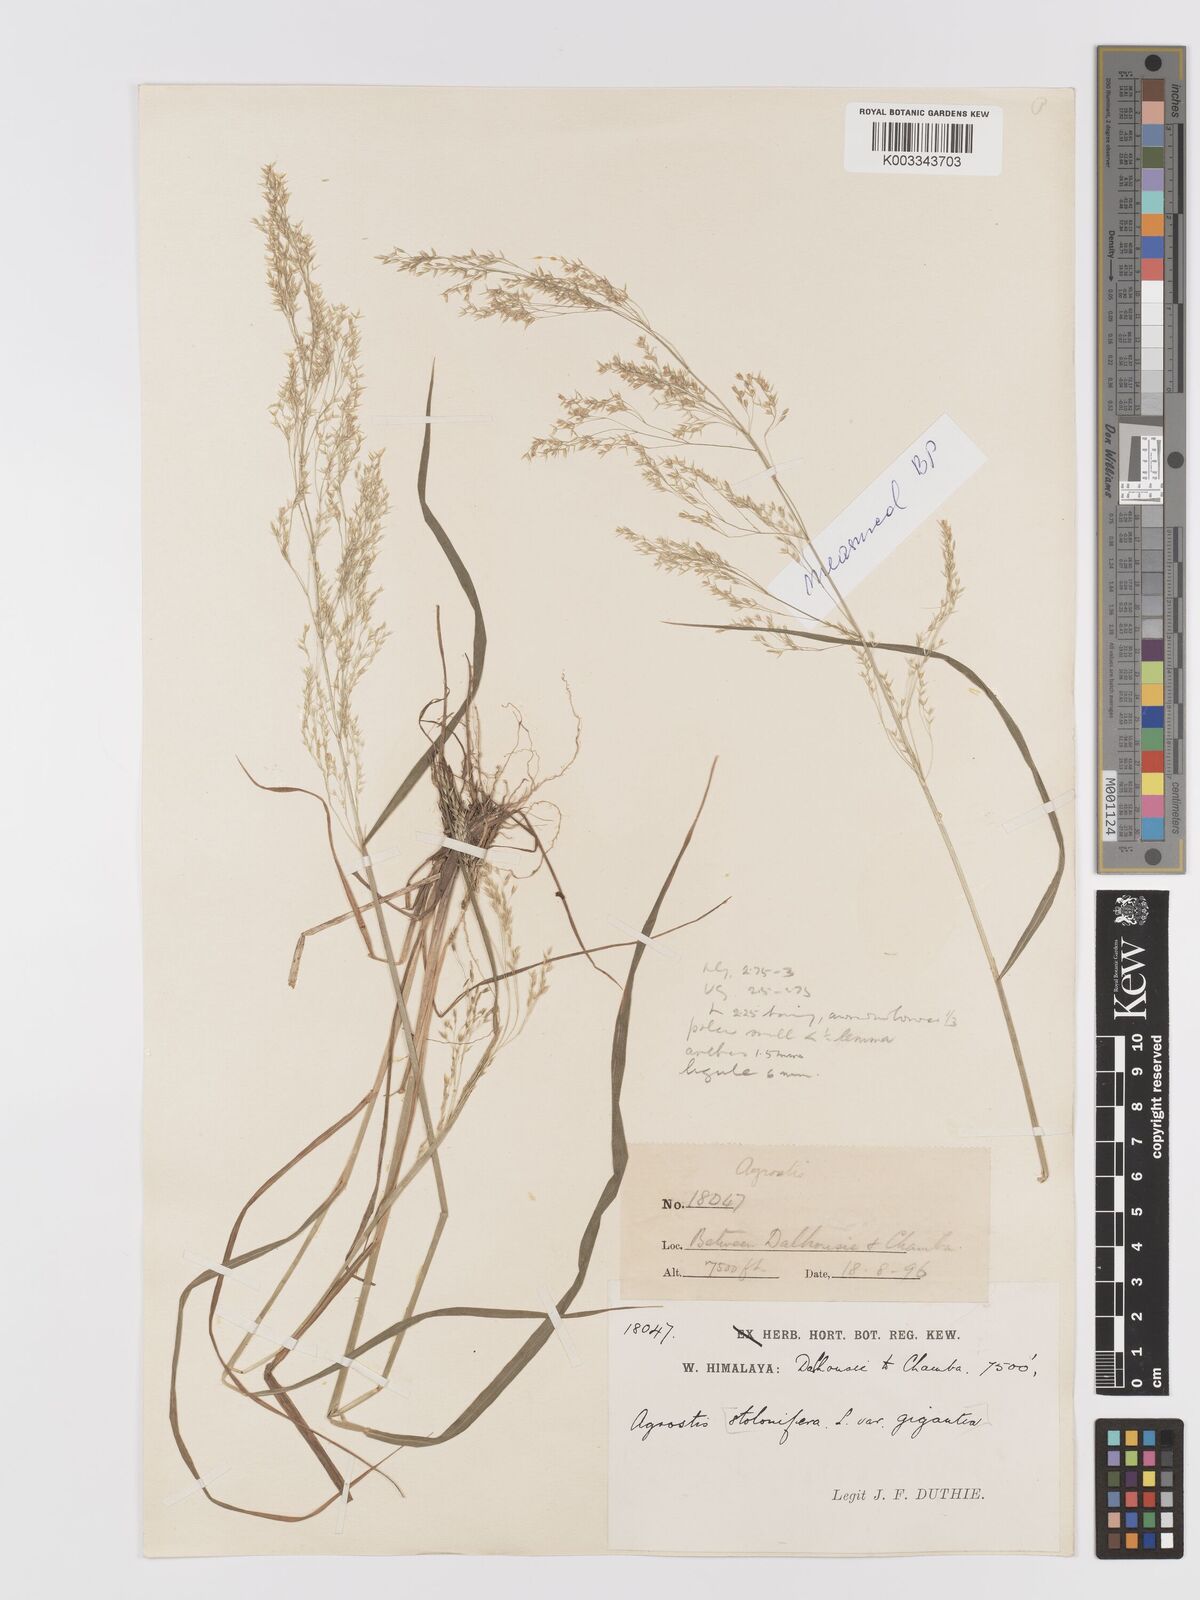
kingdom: Plantae
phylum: Tracheophyta
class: Liliopsida
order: Poales
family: Poaceae
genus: Agrostis
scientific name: Agrostis pilosula
